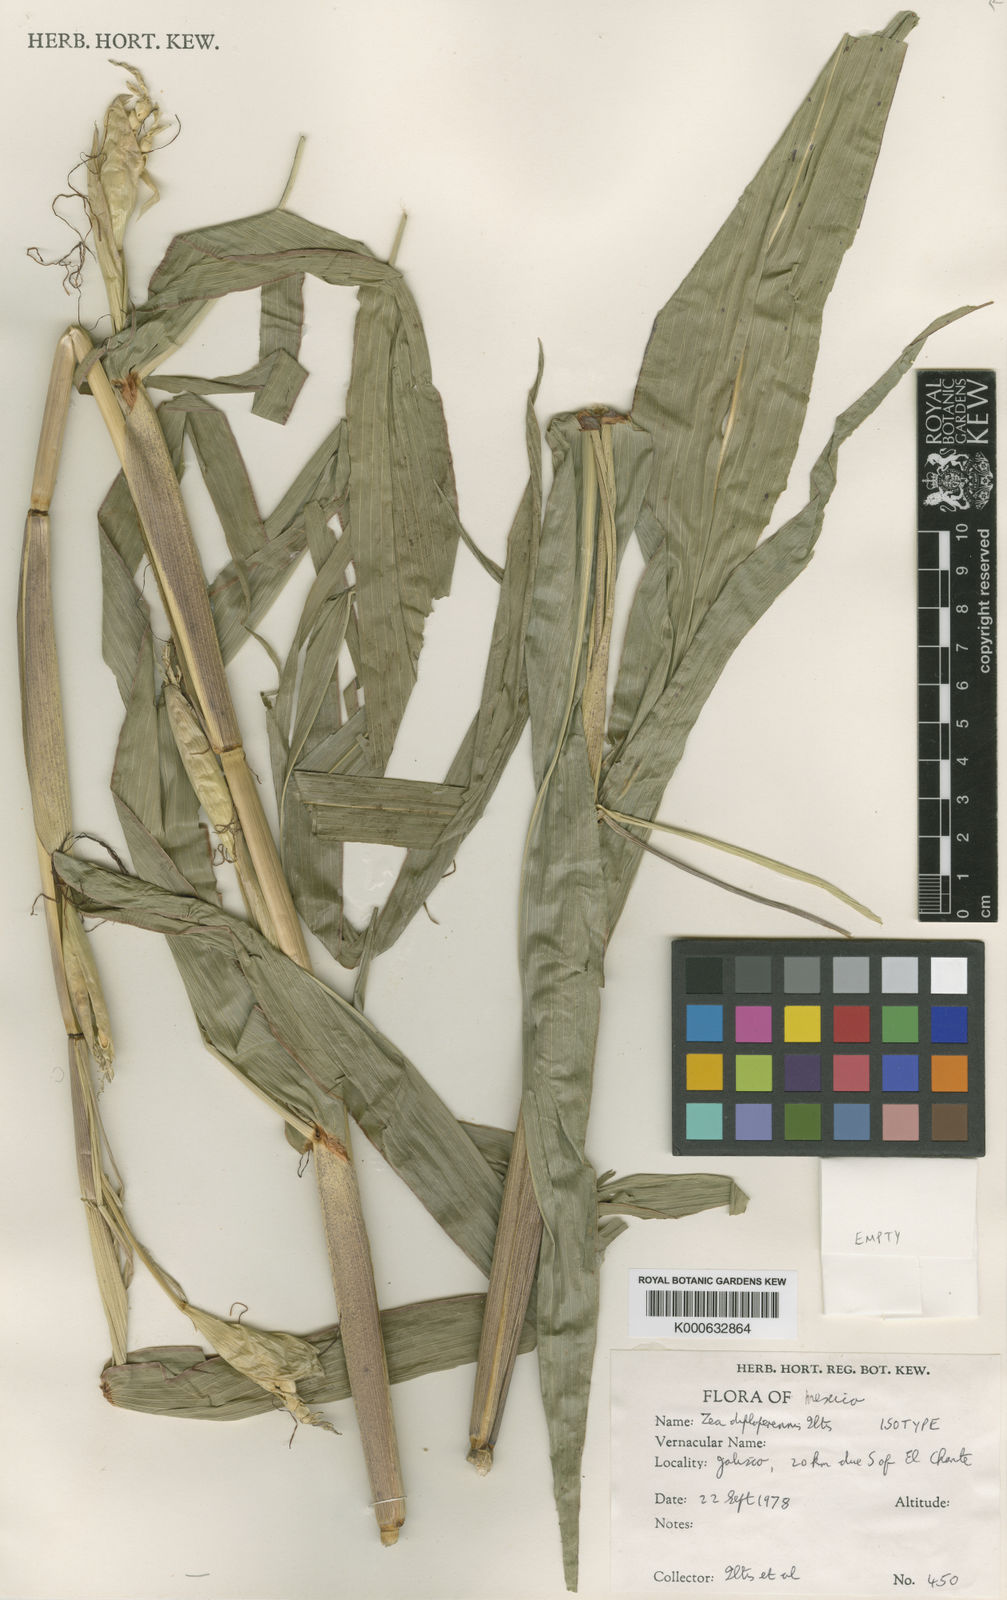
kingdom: Plantae
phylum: Tracheophyta
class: Liliopsida
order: Poales
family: Poaceae
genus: Zea
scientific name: Zea
